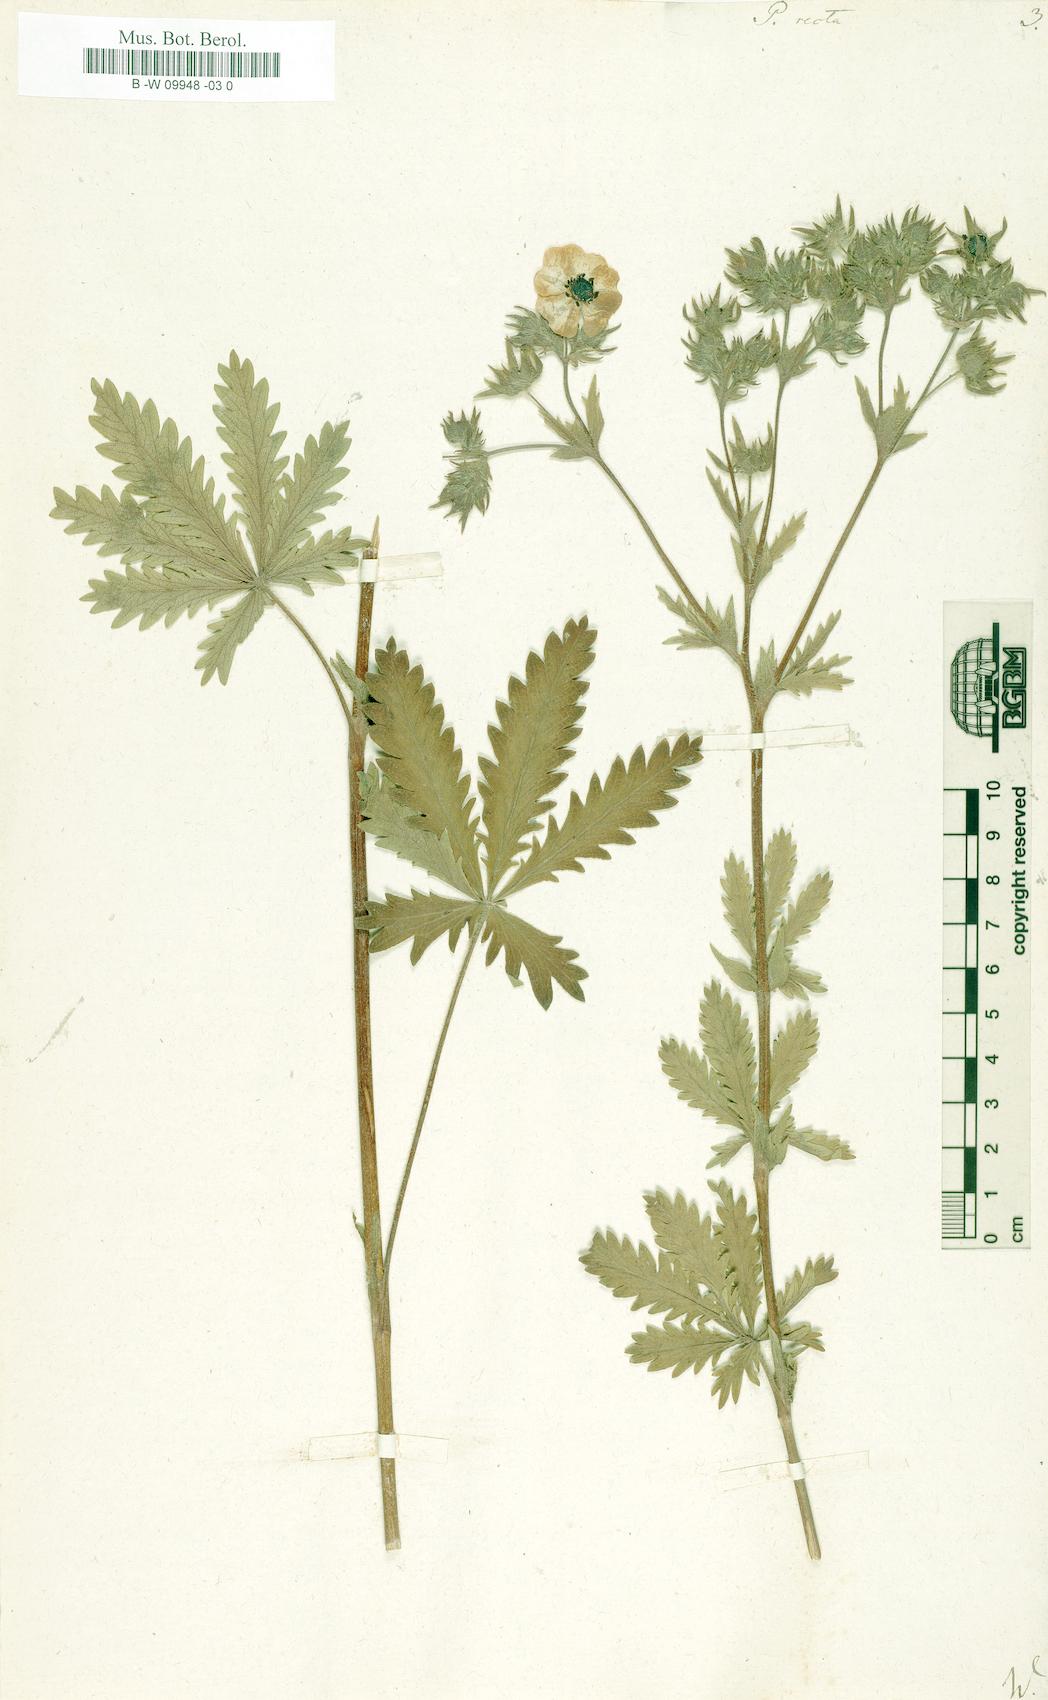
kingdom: Plantae
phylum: Tracheophyta
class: Magnoliopsida
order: Rosales
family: Rosaceae
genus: Potentilla
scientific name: Potentilla recta
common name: Sulphur cinquefoil
